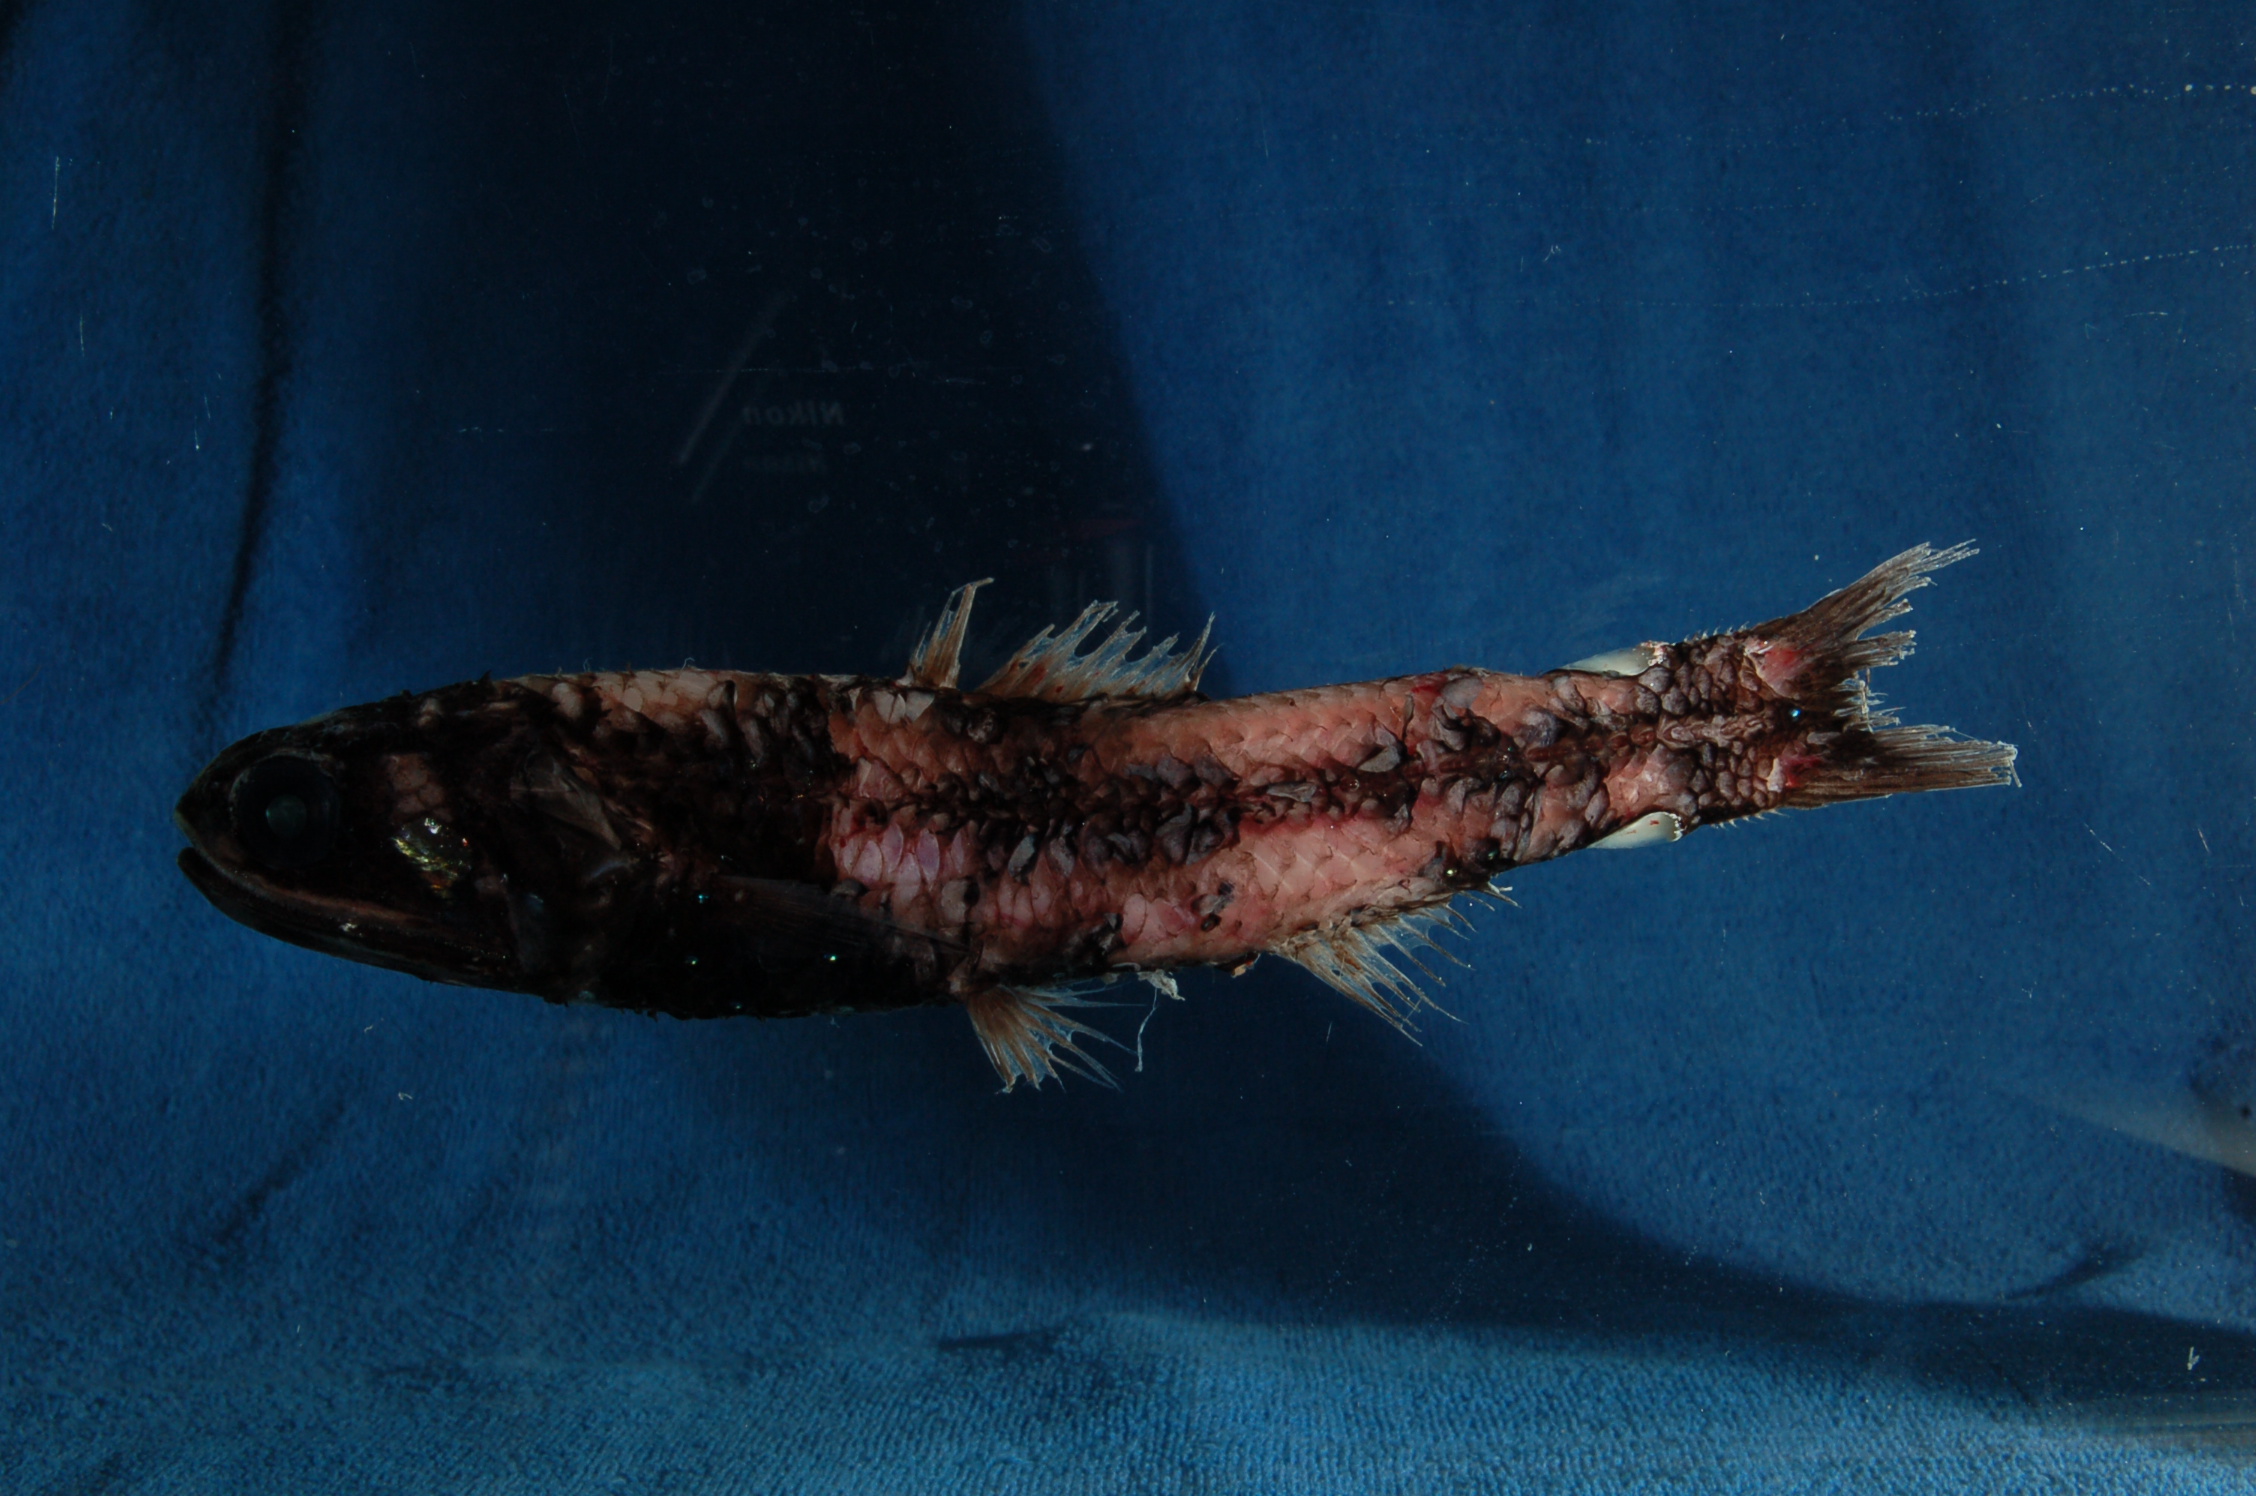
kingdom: Animalia
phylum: Chordata
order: Myctophiformes
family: Myctophidae
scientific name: Myctophidae
